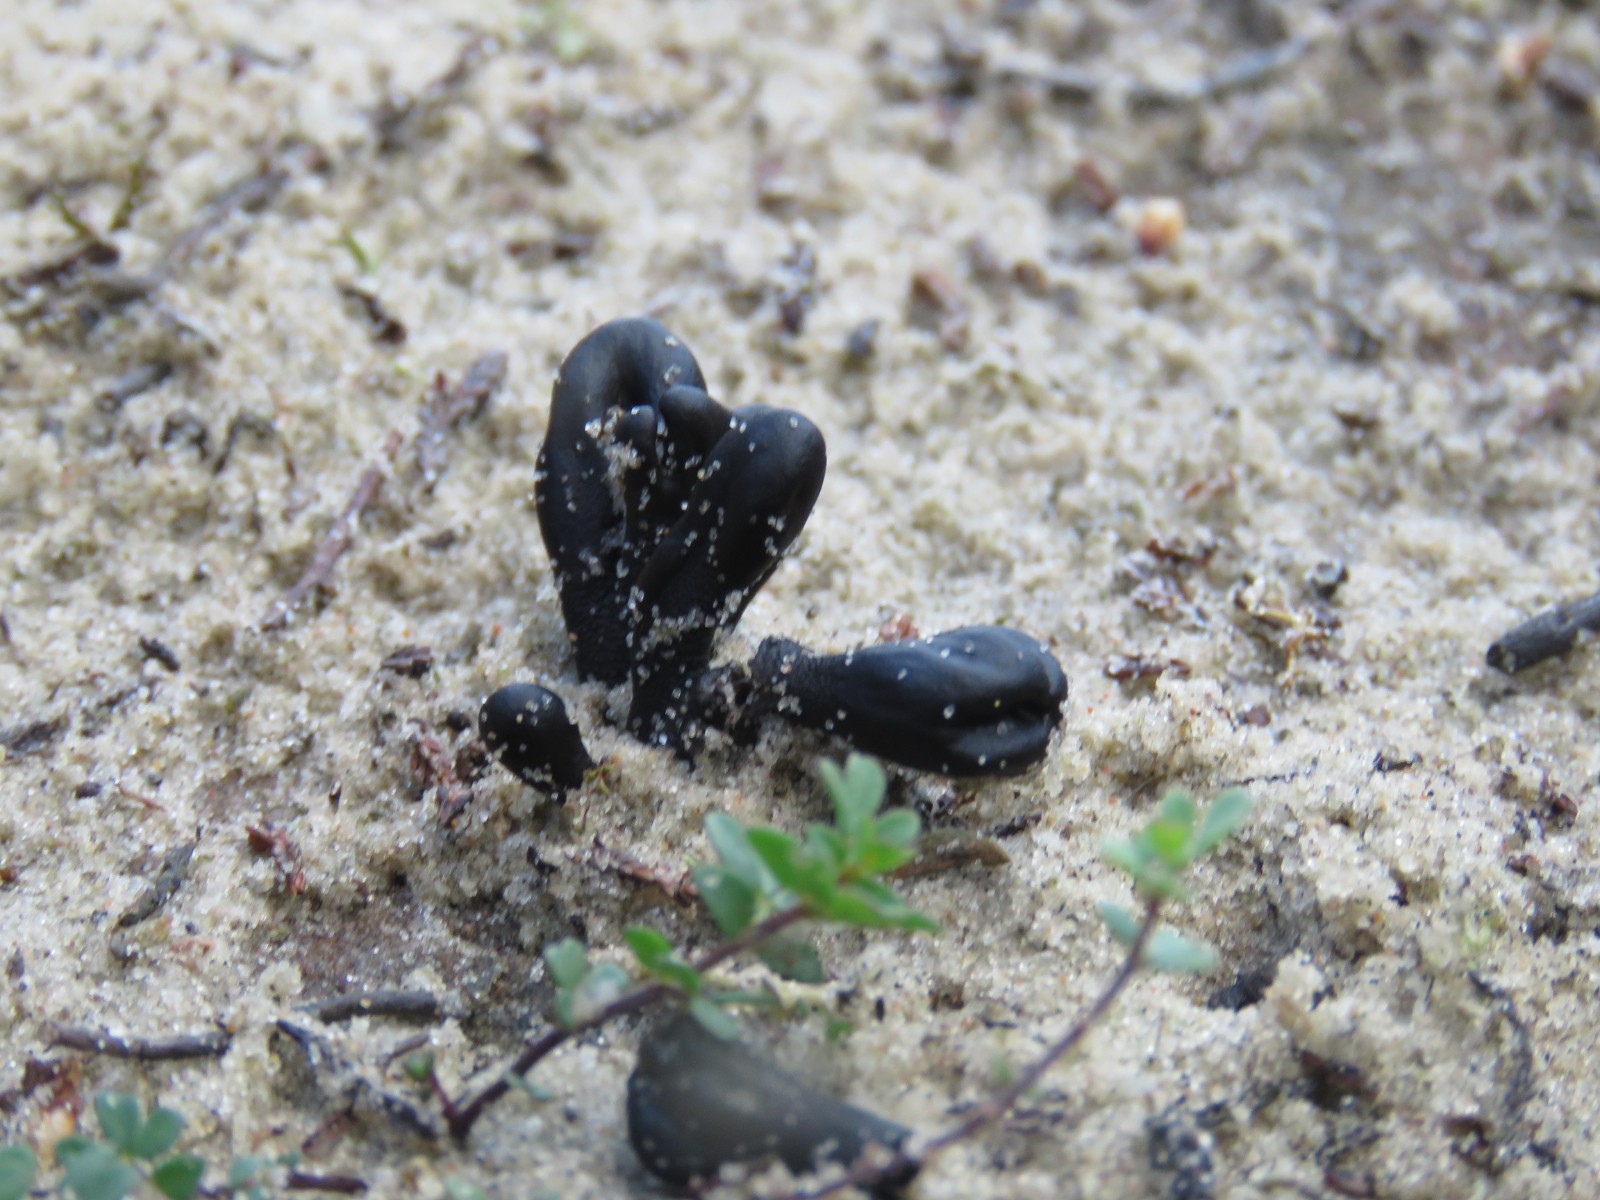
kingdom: Fungi
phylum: Ascomycota
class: Geoglossomycetes
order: Geoglossales
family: Geoglossaceae
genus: Sabuloglossum
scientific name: Sabuloglossum arenarium
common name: klit-jordtunge
